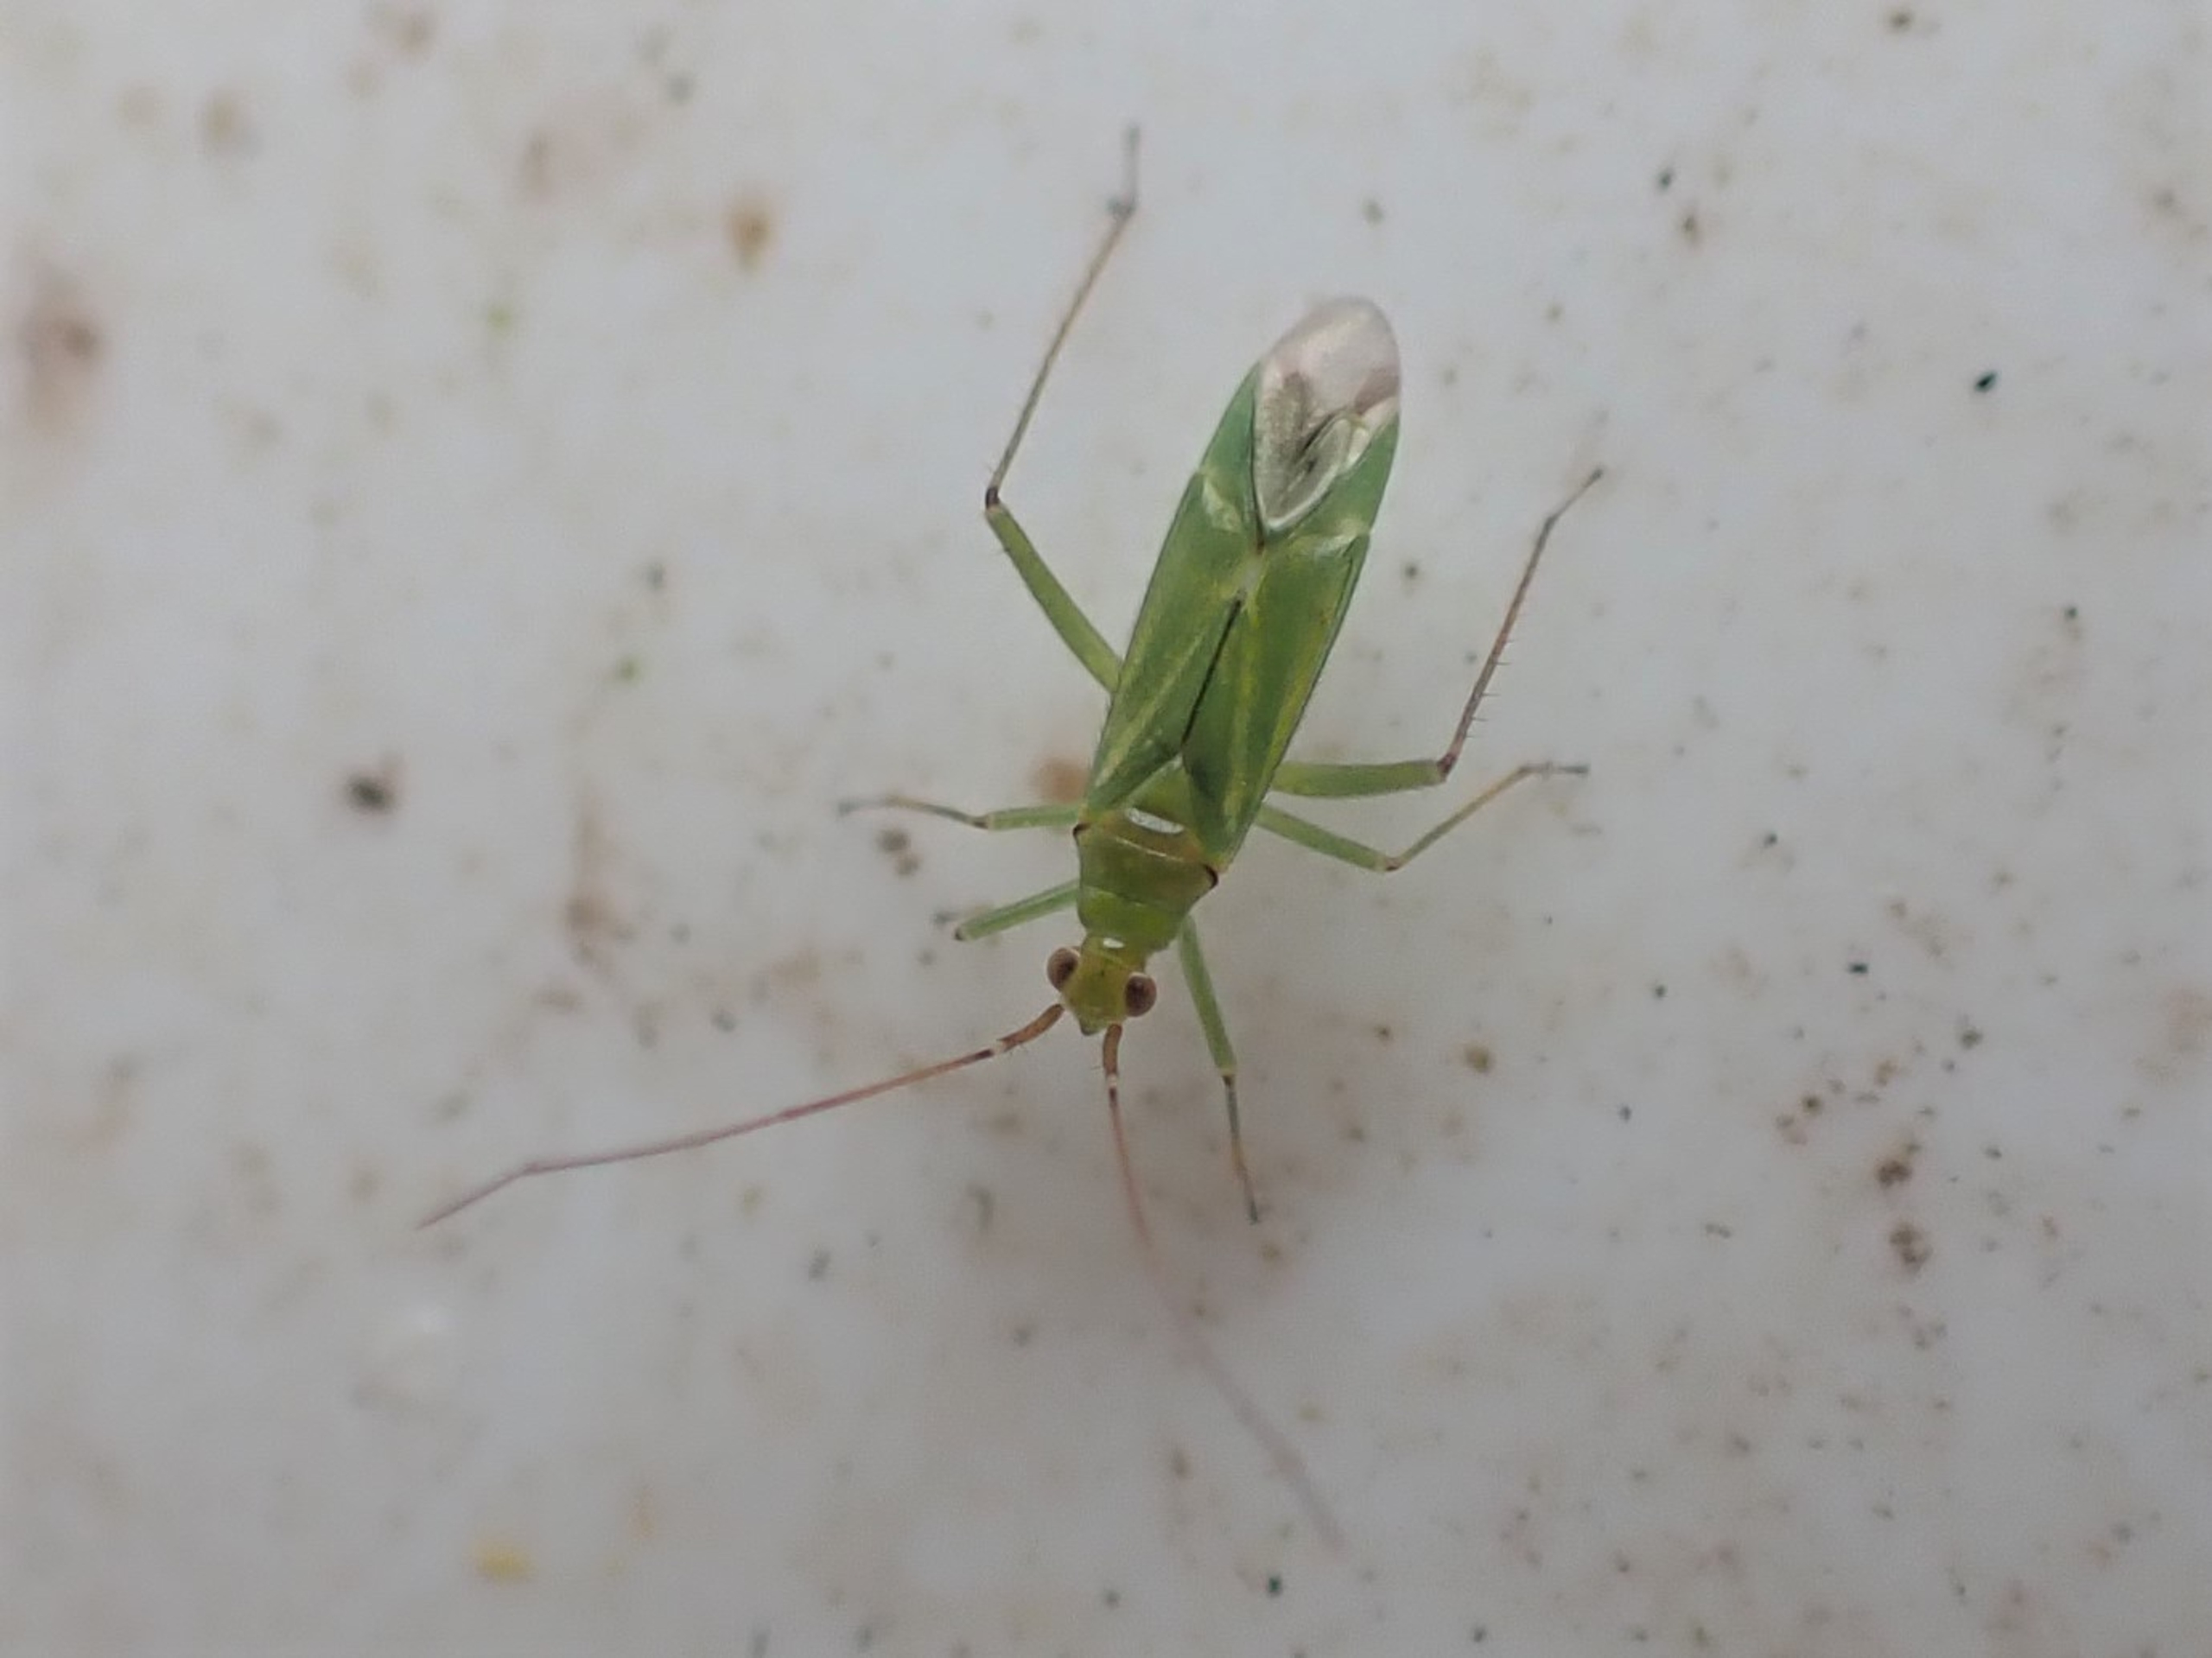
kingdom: Animalia
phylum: Arthropoda
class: Insecta
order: Hemiptera
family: Miridae
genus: Blepharidopterus
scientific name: Blepharidopterus angulatus
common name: Sortknæet blomstertæge
